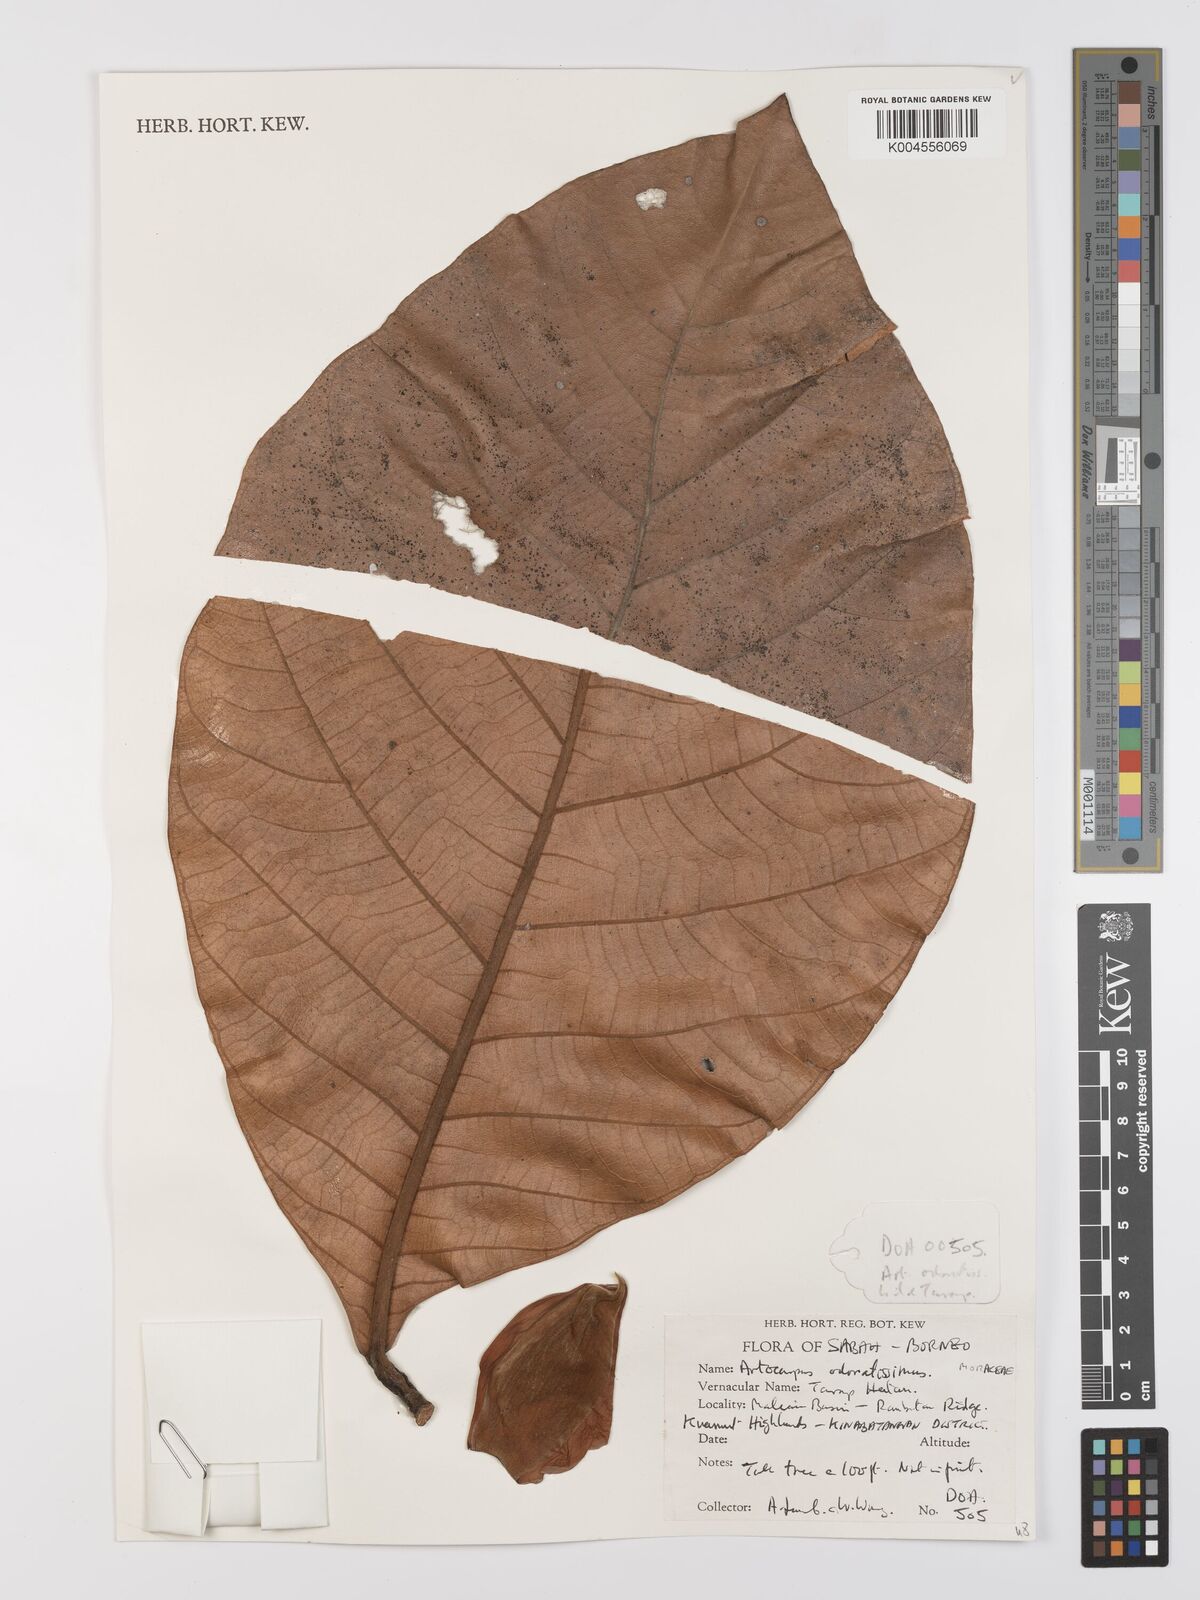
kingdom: Plantae
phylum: Tracheophyta
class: Magnoliopsida
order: Rosales
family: Moraceae
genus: Artocarpus
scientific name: Artocarpus odoratissimus
